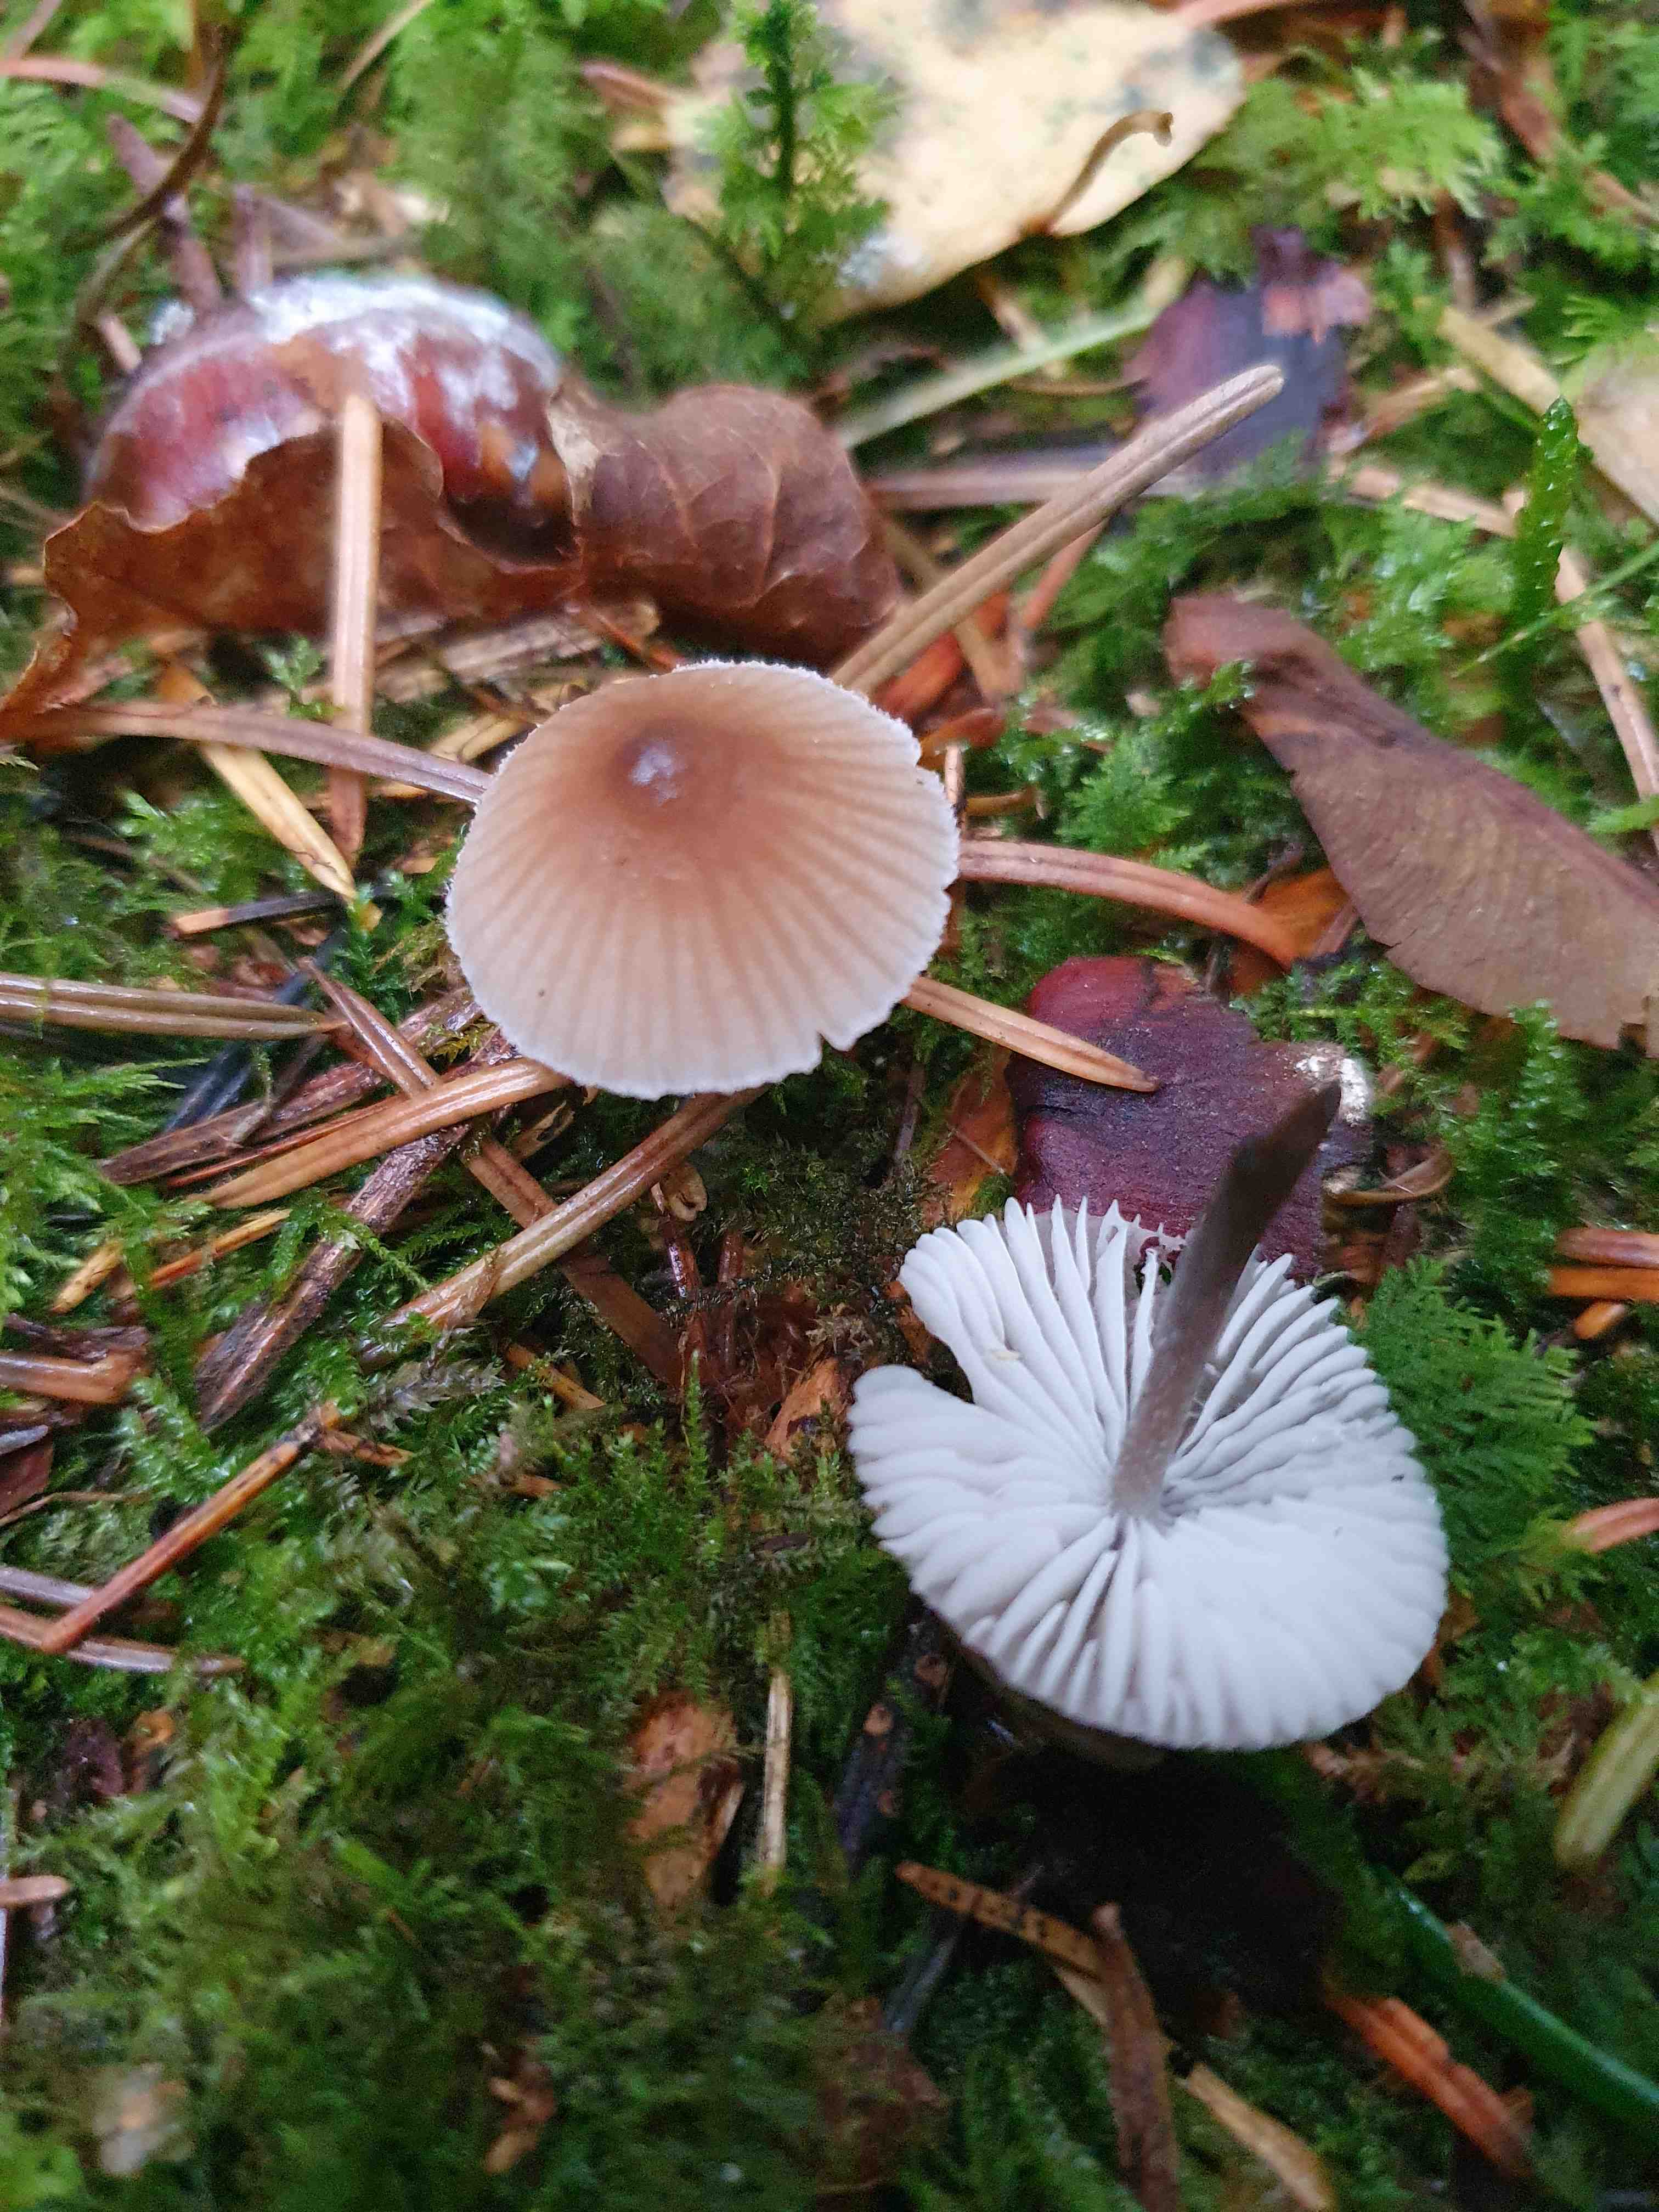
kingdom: Fungi
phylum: Basidiomycota
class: Agaricomycetes
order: Agaricales
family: Mycenaceae
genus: Mycena
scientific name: Mycena zephirus
